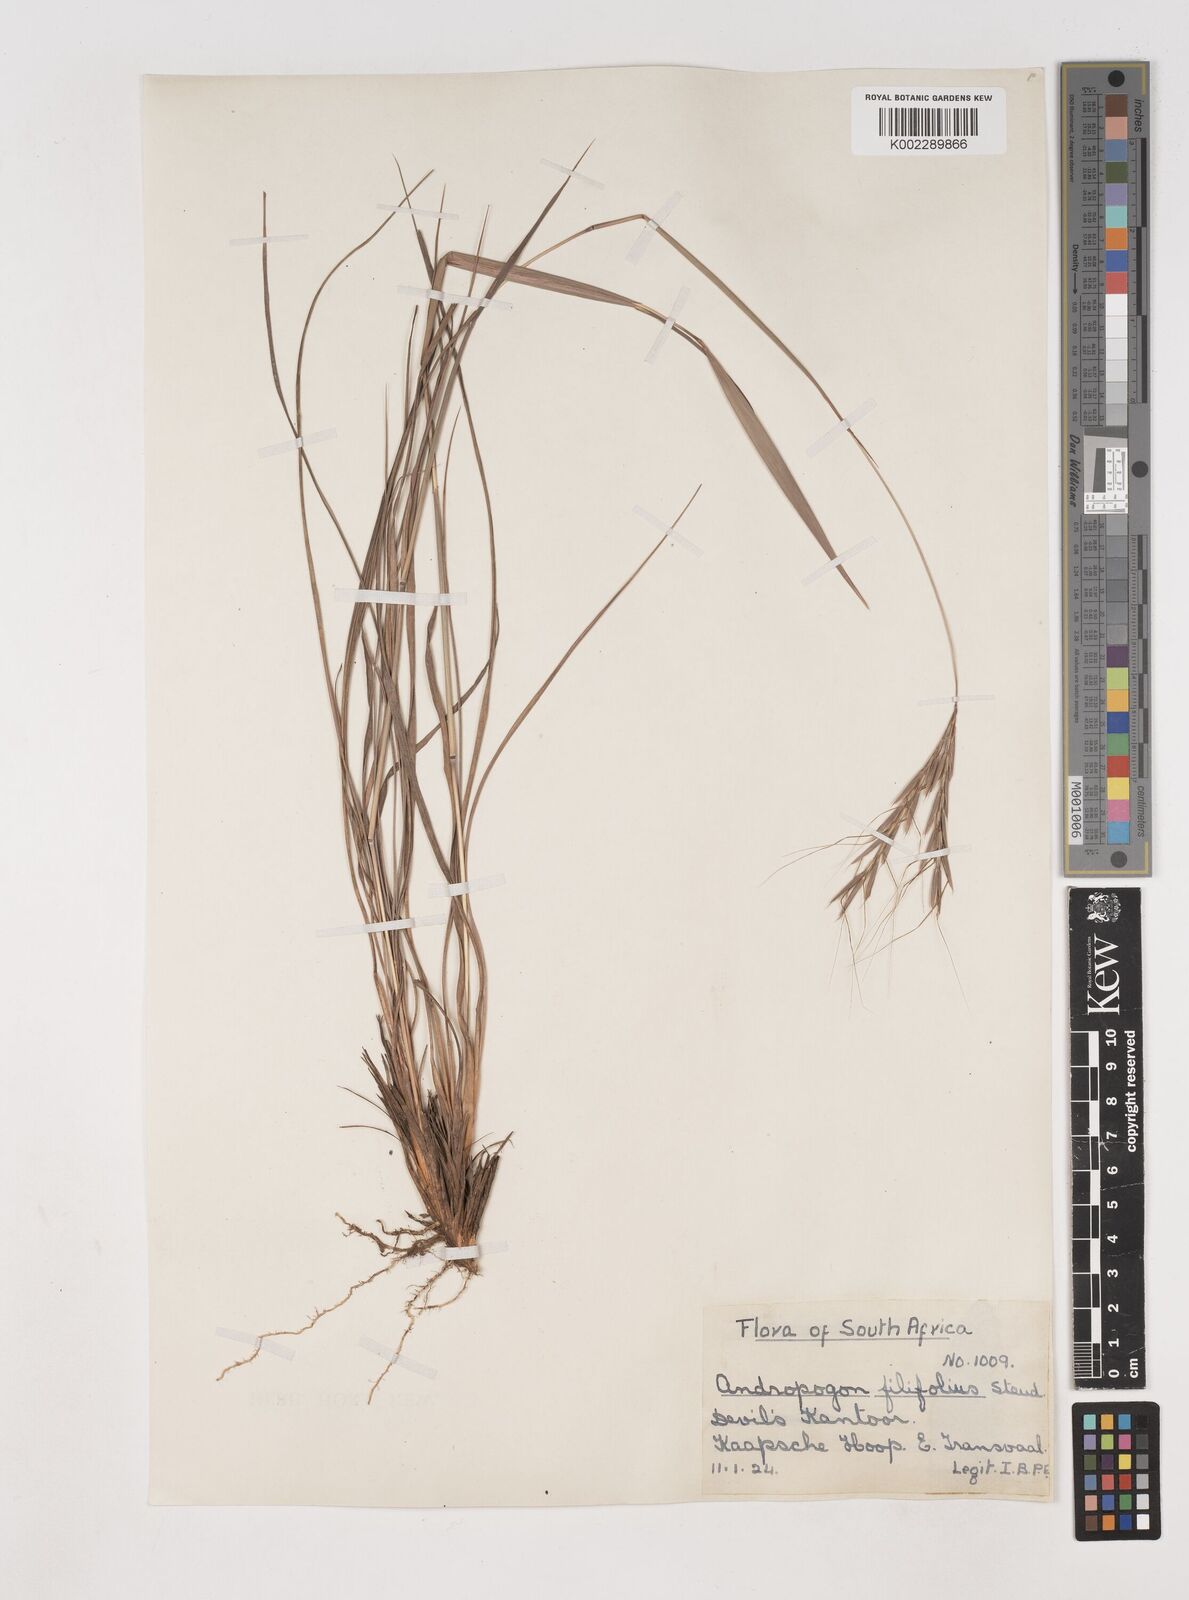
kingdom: Plantae
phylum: Tracheophyta
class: Liliopsida
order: Poales
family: Poaceae
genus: Diheteropogon
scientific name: Diheteropogon amplectens
